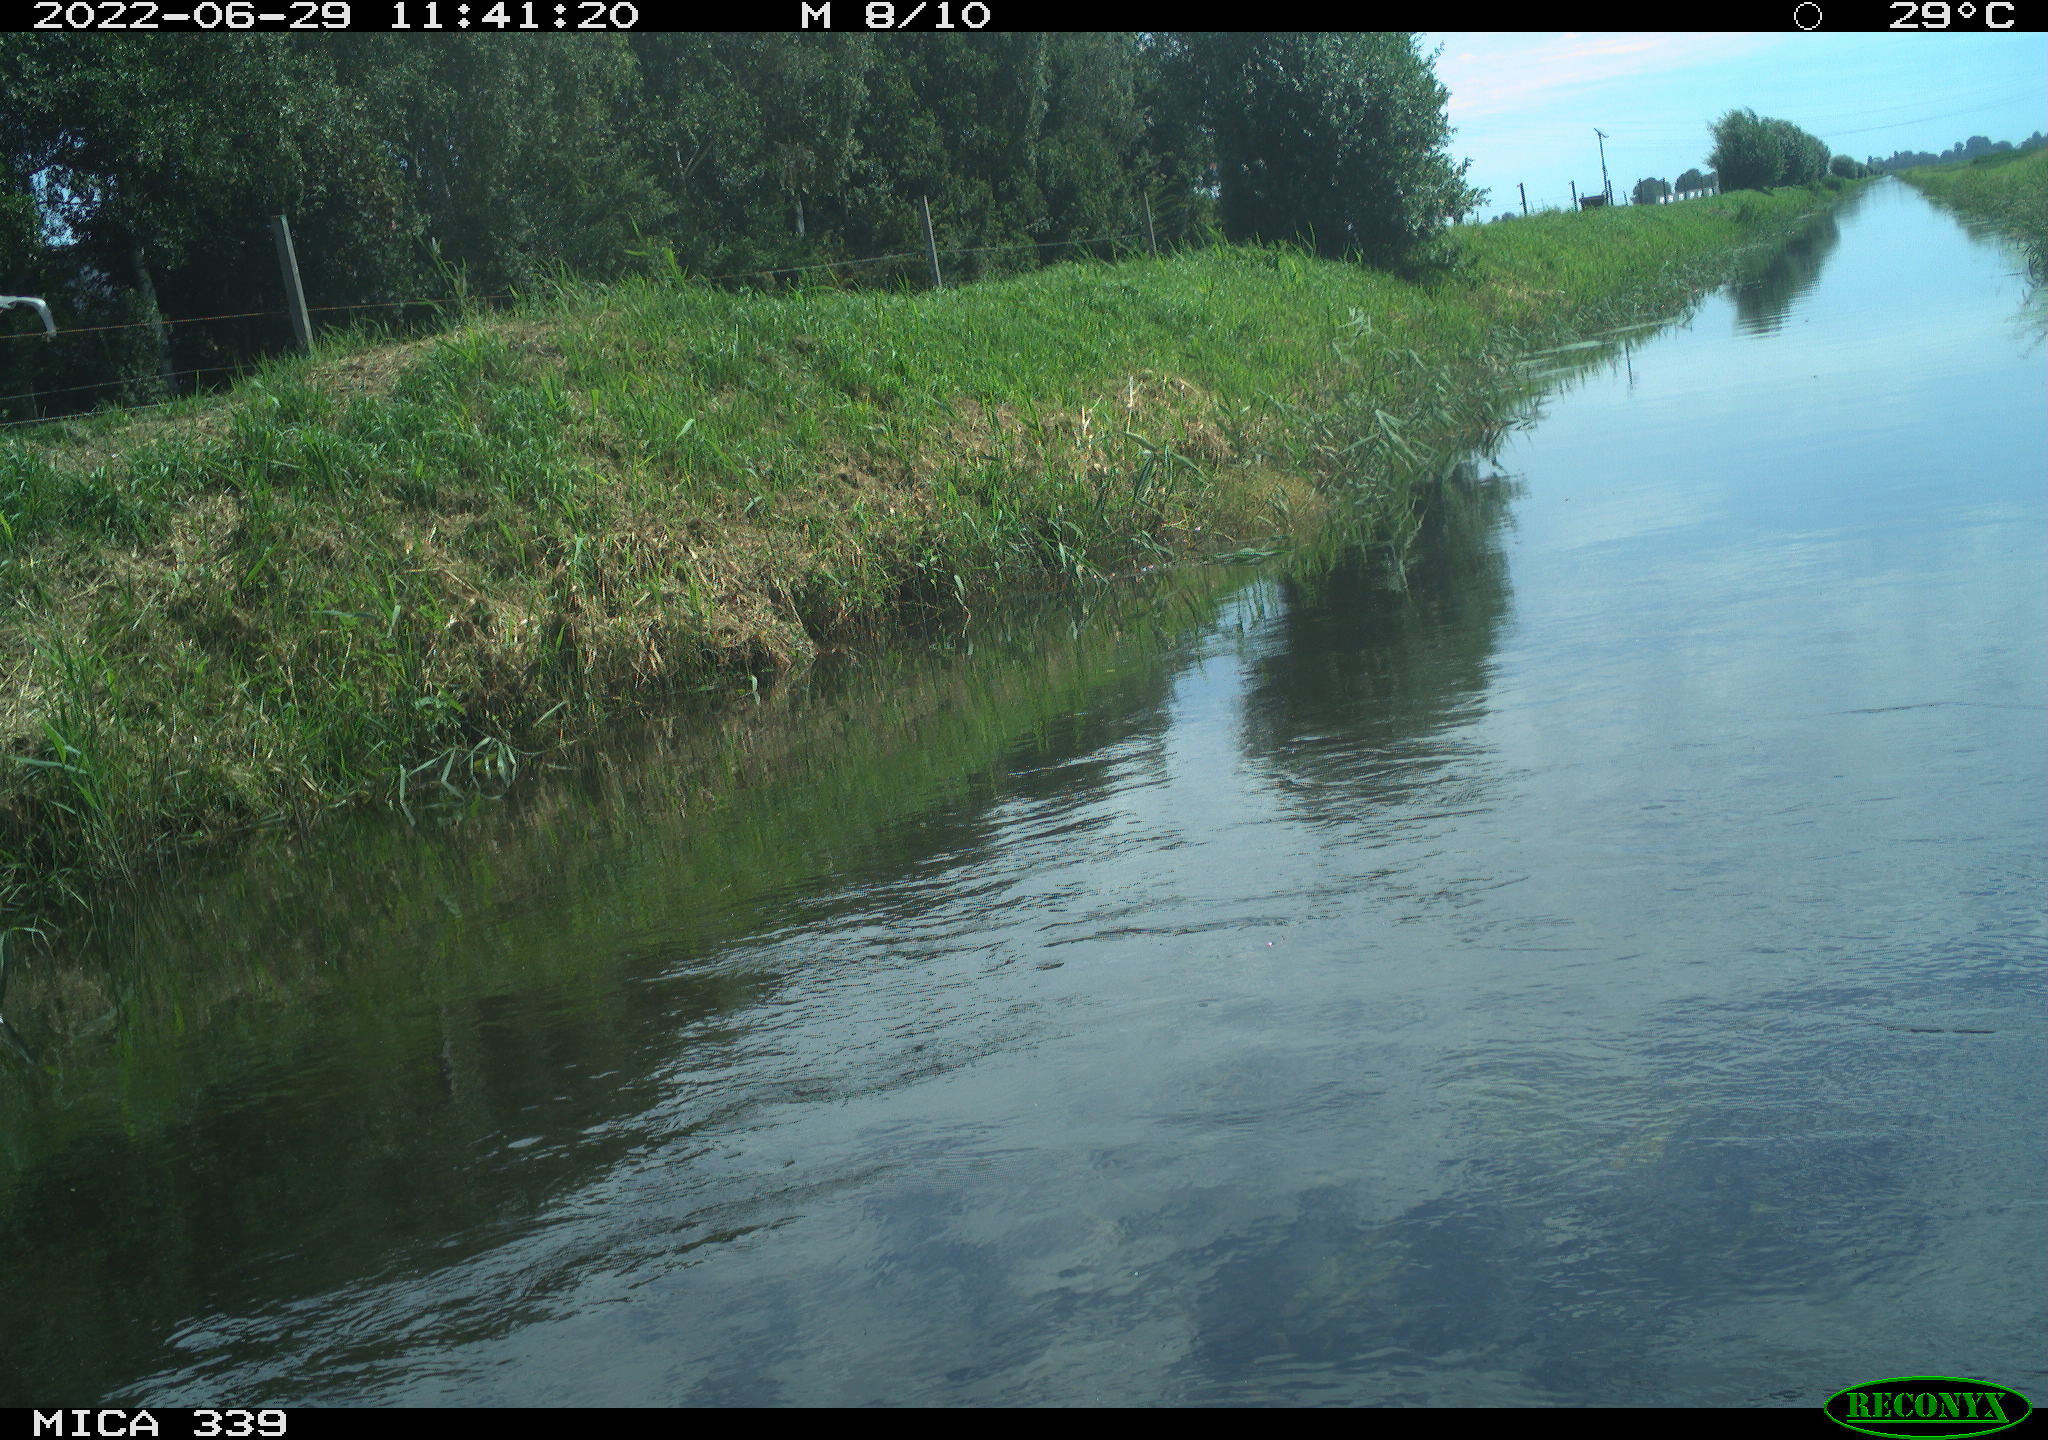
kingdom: Animalia
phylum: Chordata
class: Aves
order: Pelecaniformes
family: Ardeidae
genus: Ardea
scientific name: Ardea cinerea
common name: Grey heron
